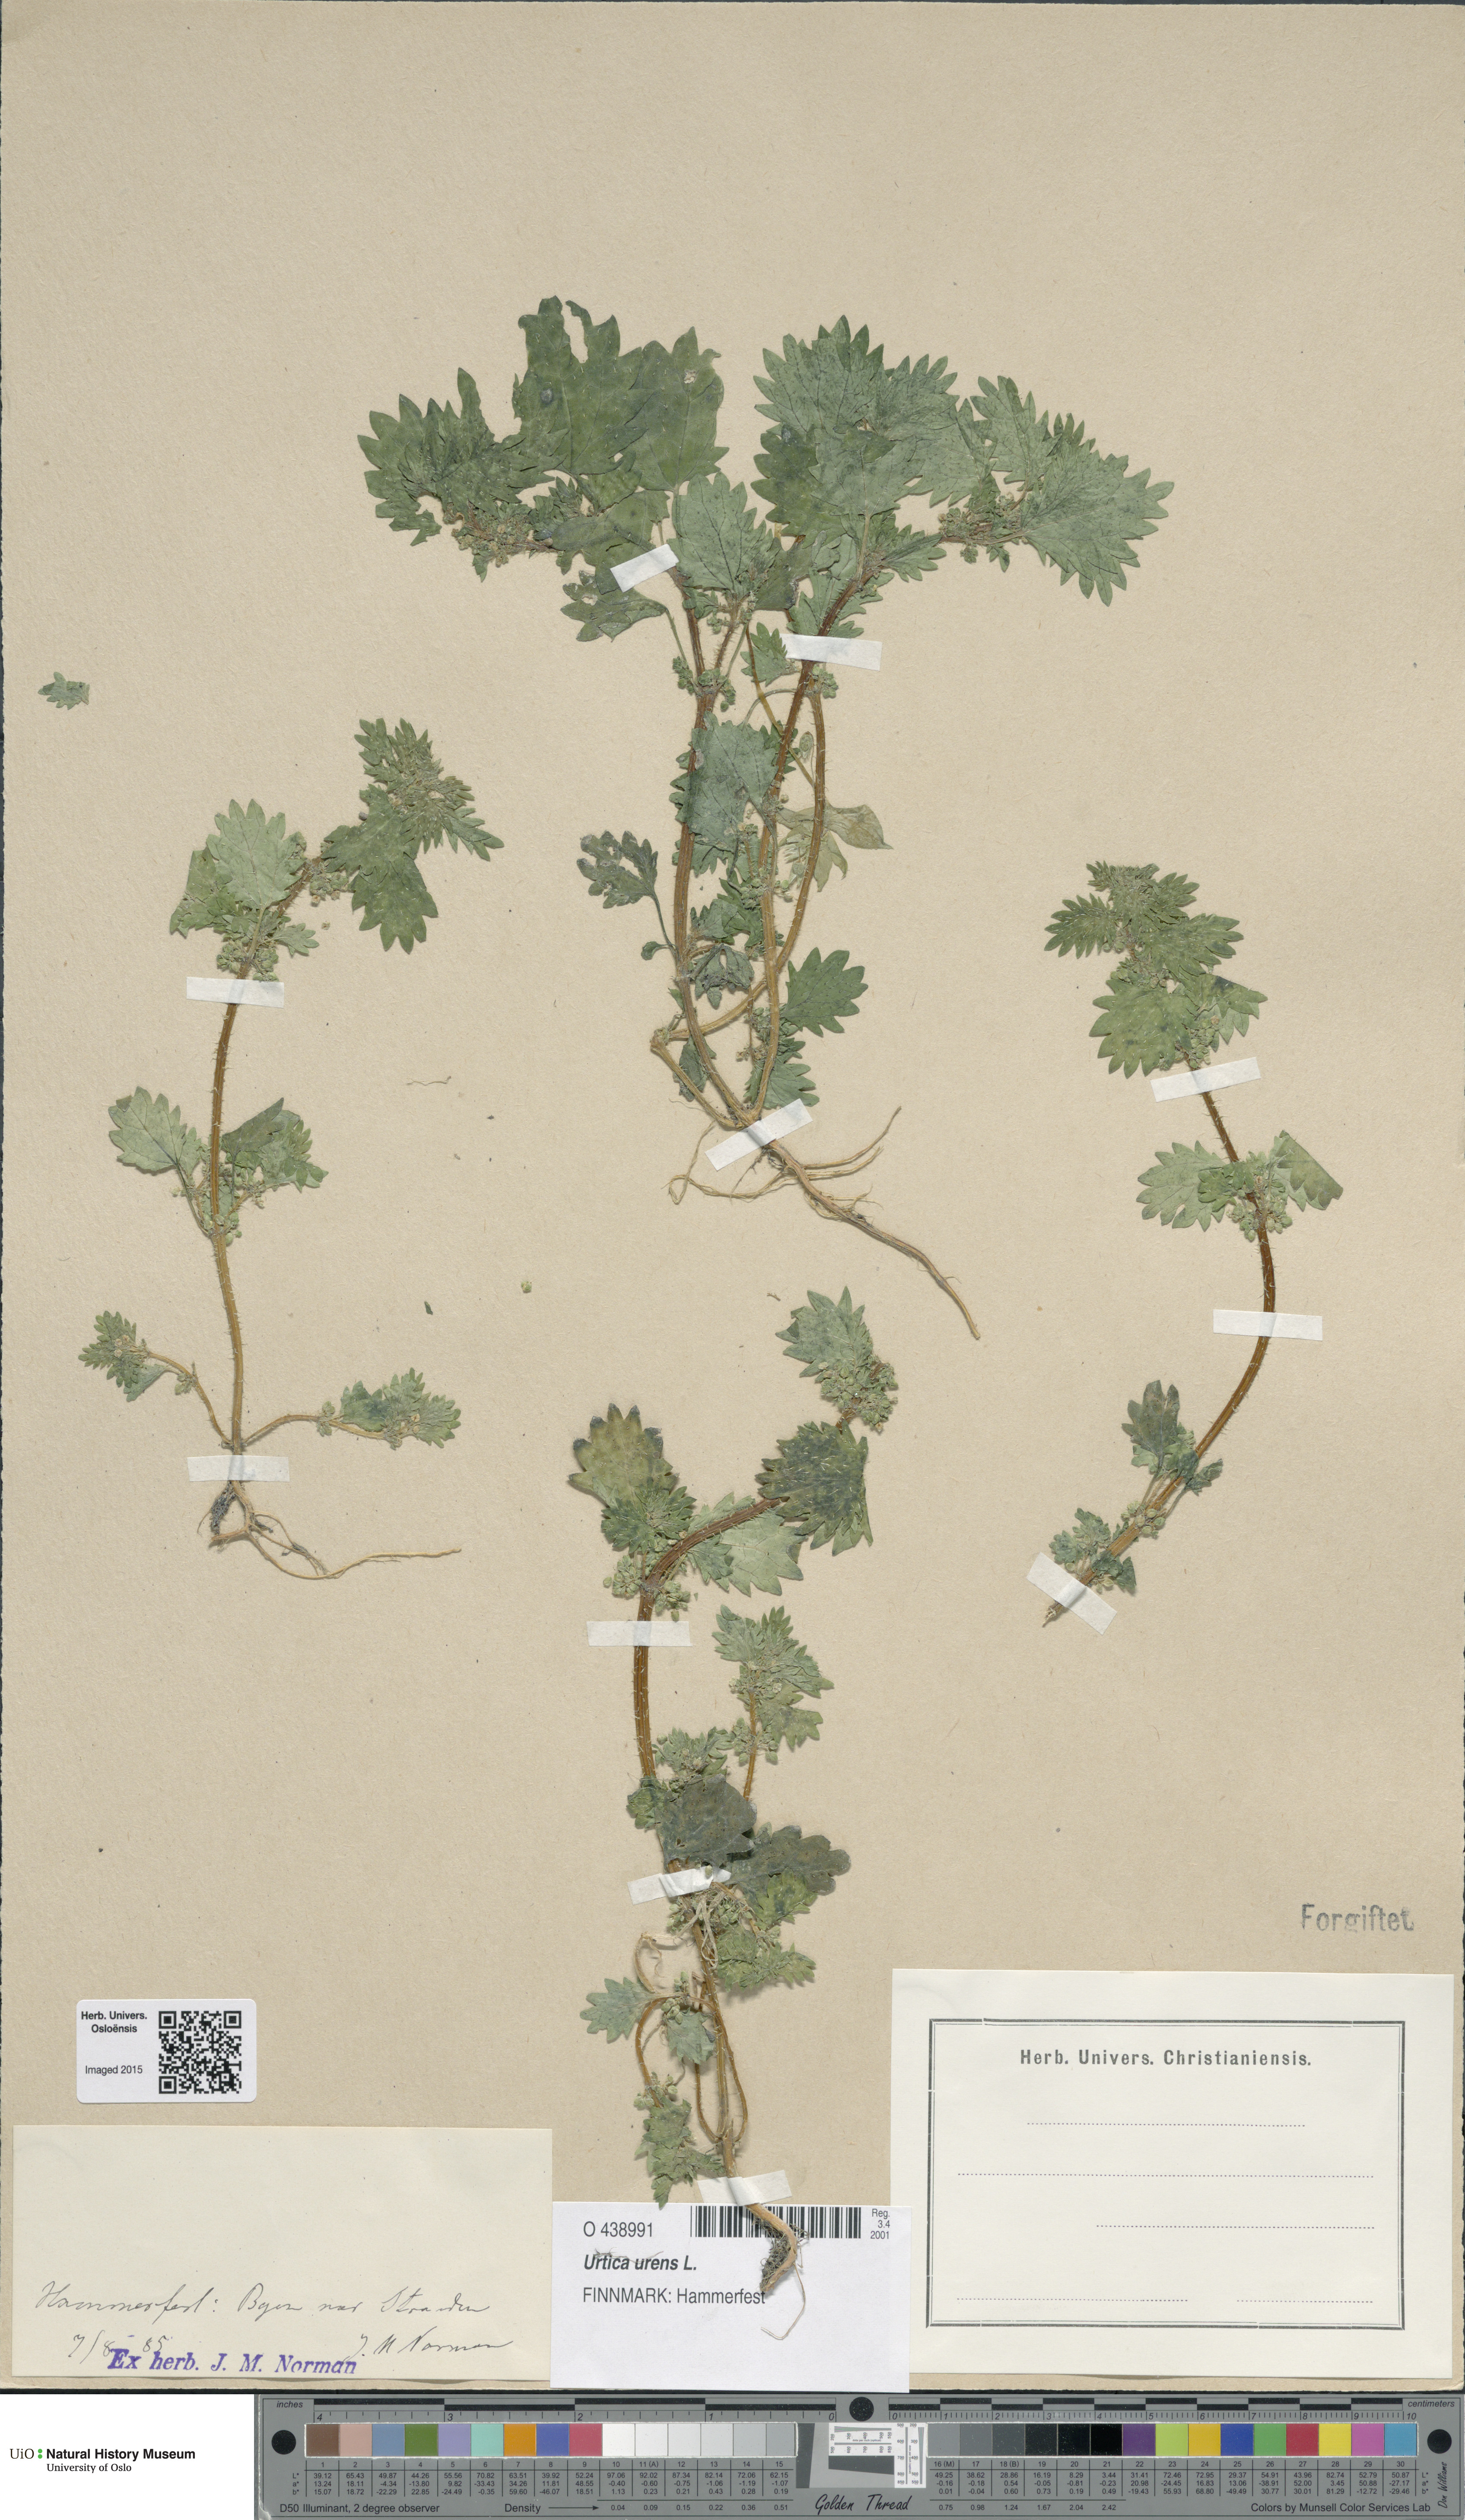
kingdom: Plantae
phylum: Tracheophyta
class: Magnoliopsida
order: Rosales
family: Urticaceae
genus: Urtica
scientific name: Urtica urens
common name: Dwarf nettle
